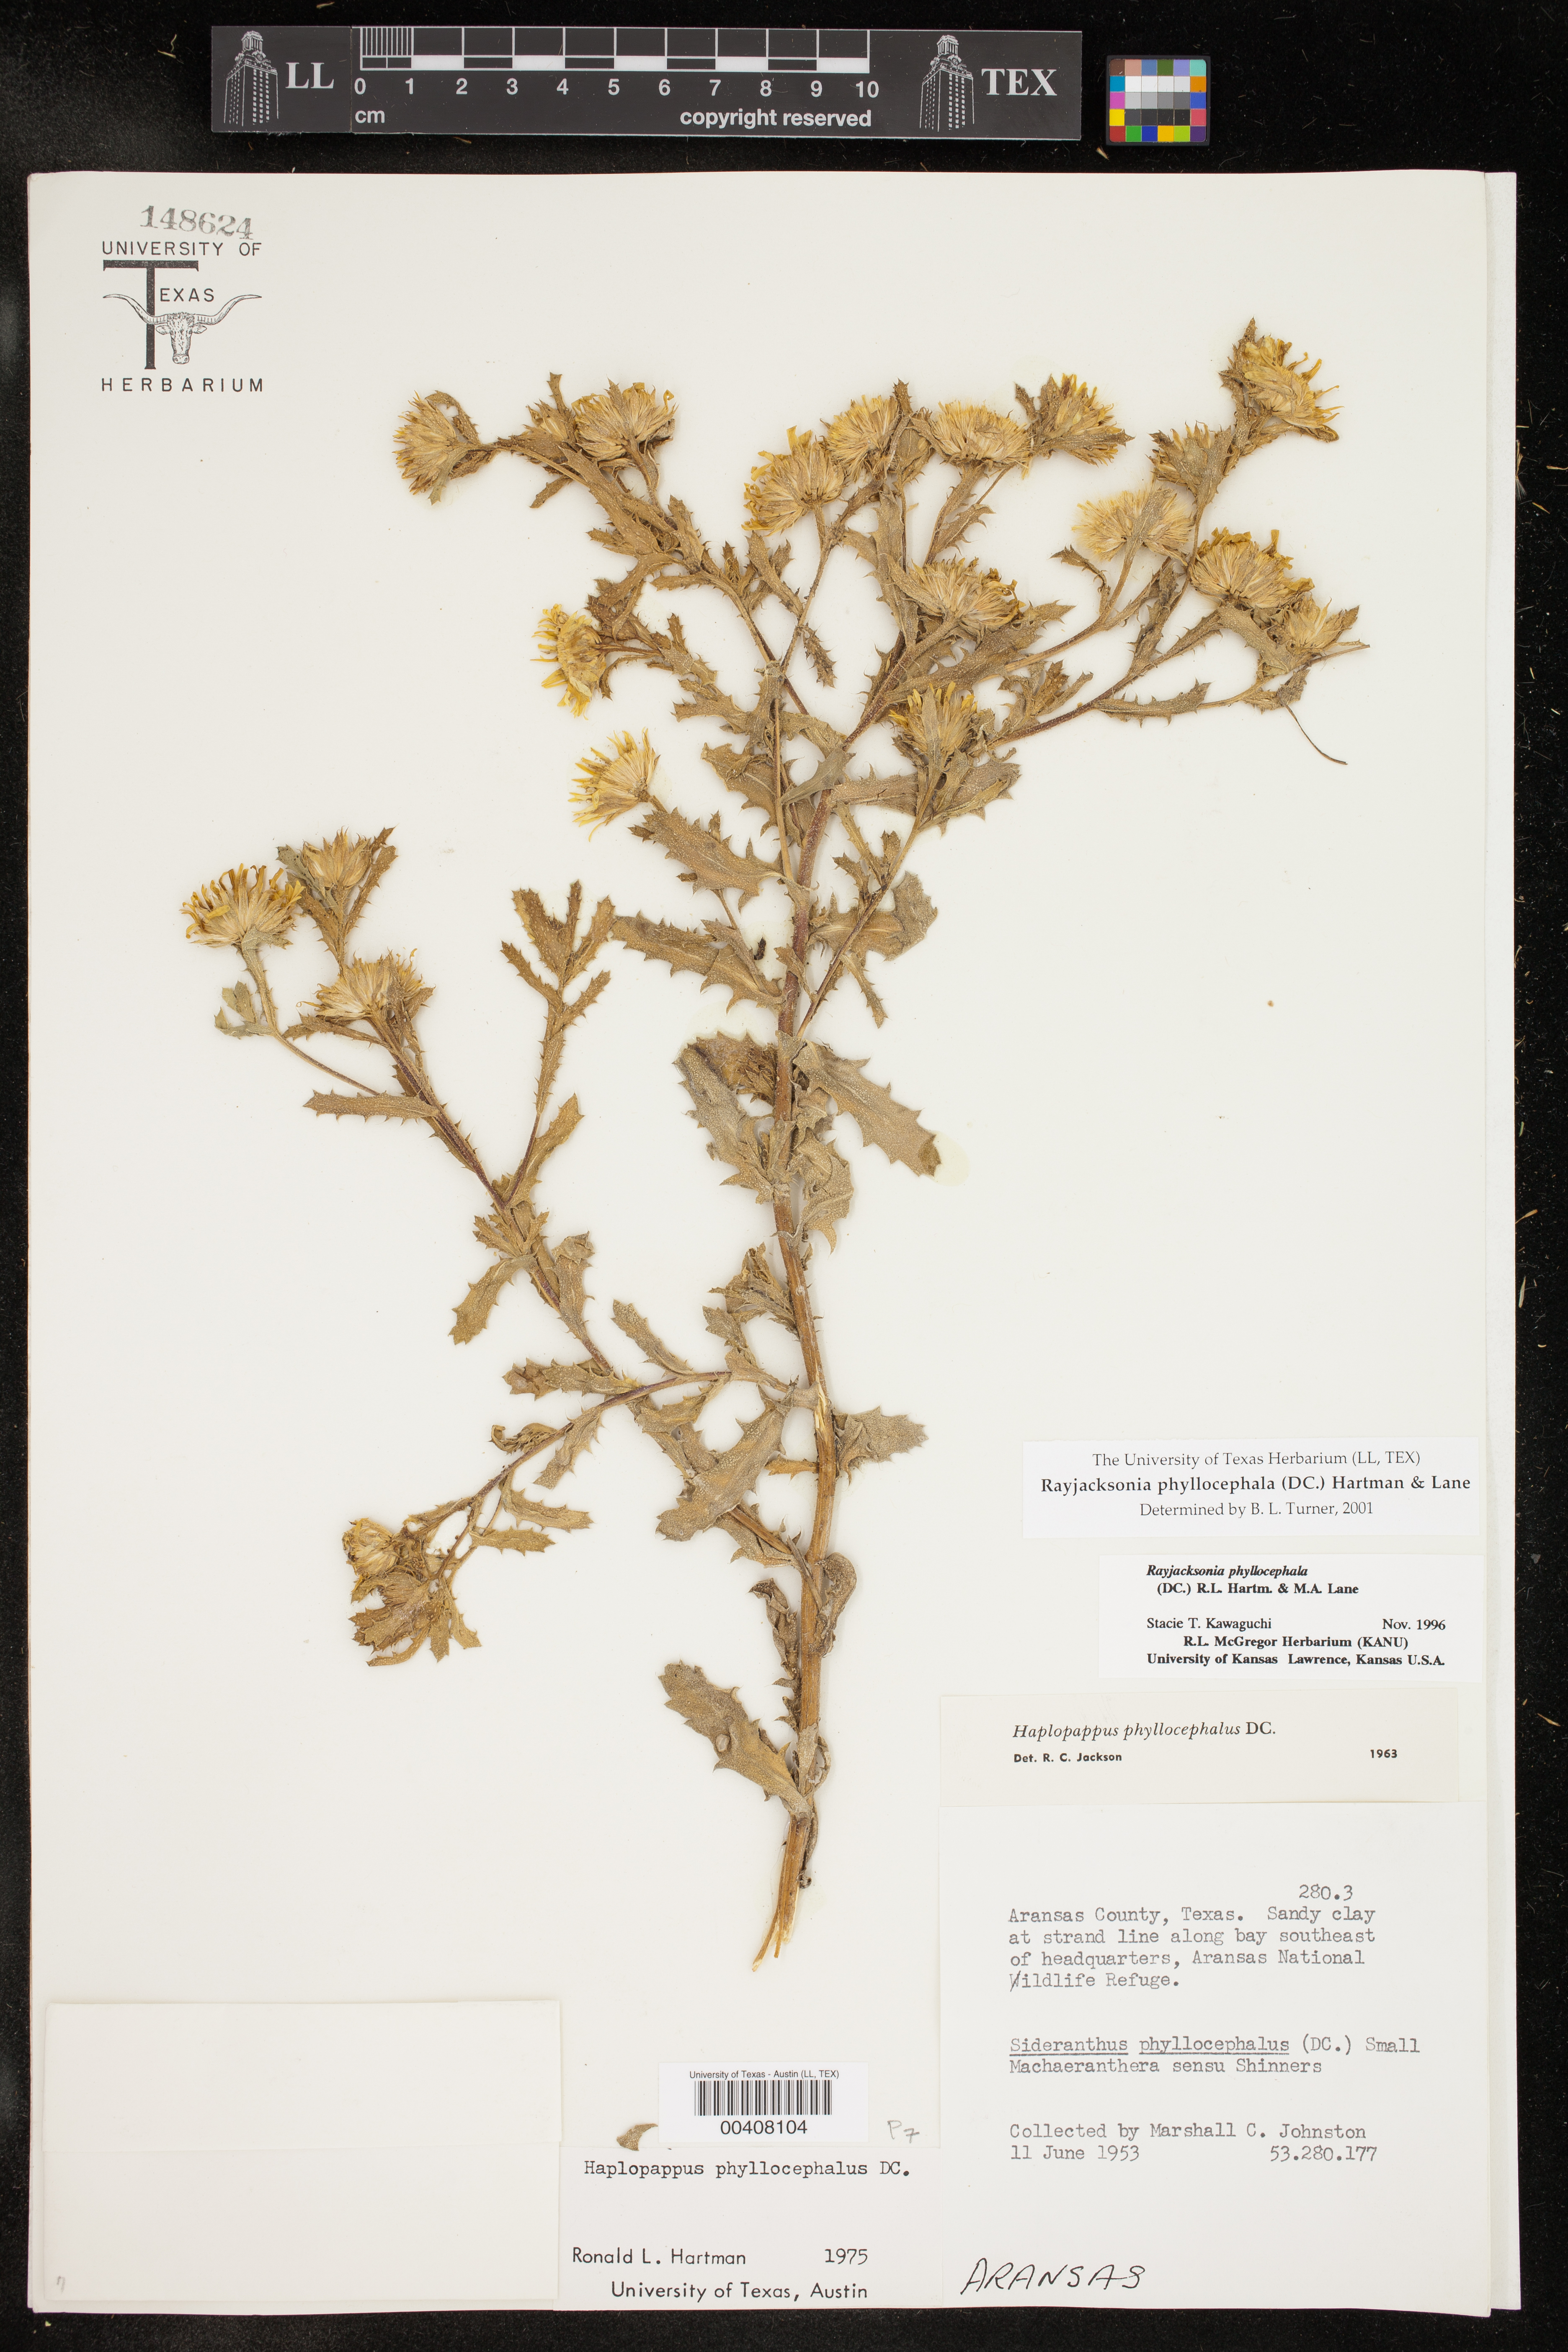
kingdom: Plantae
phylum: Tracheophyta
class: Magnoliopsida
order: Asterales
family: Asteraceae
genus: Rayjacksonia
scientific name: Rayjacksonia phyllocephala
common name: Gulf coast camphor daisy
